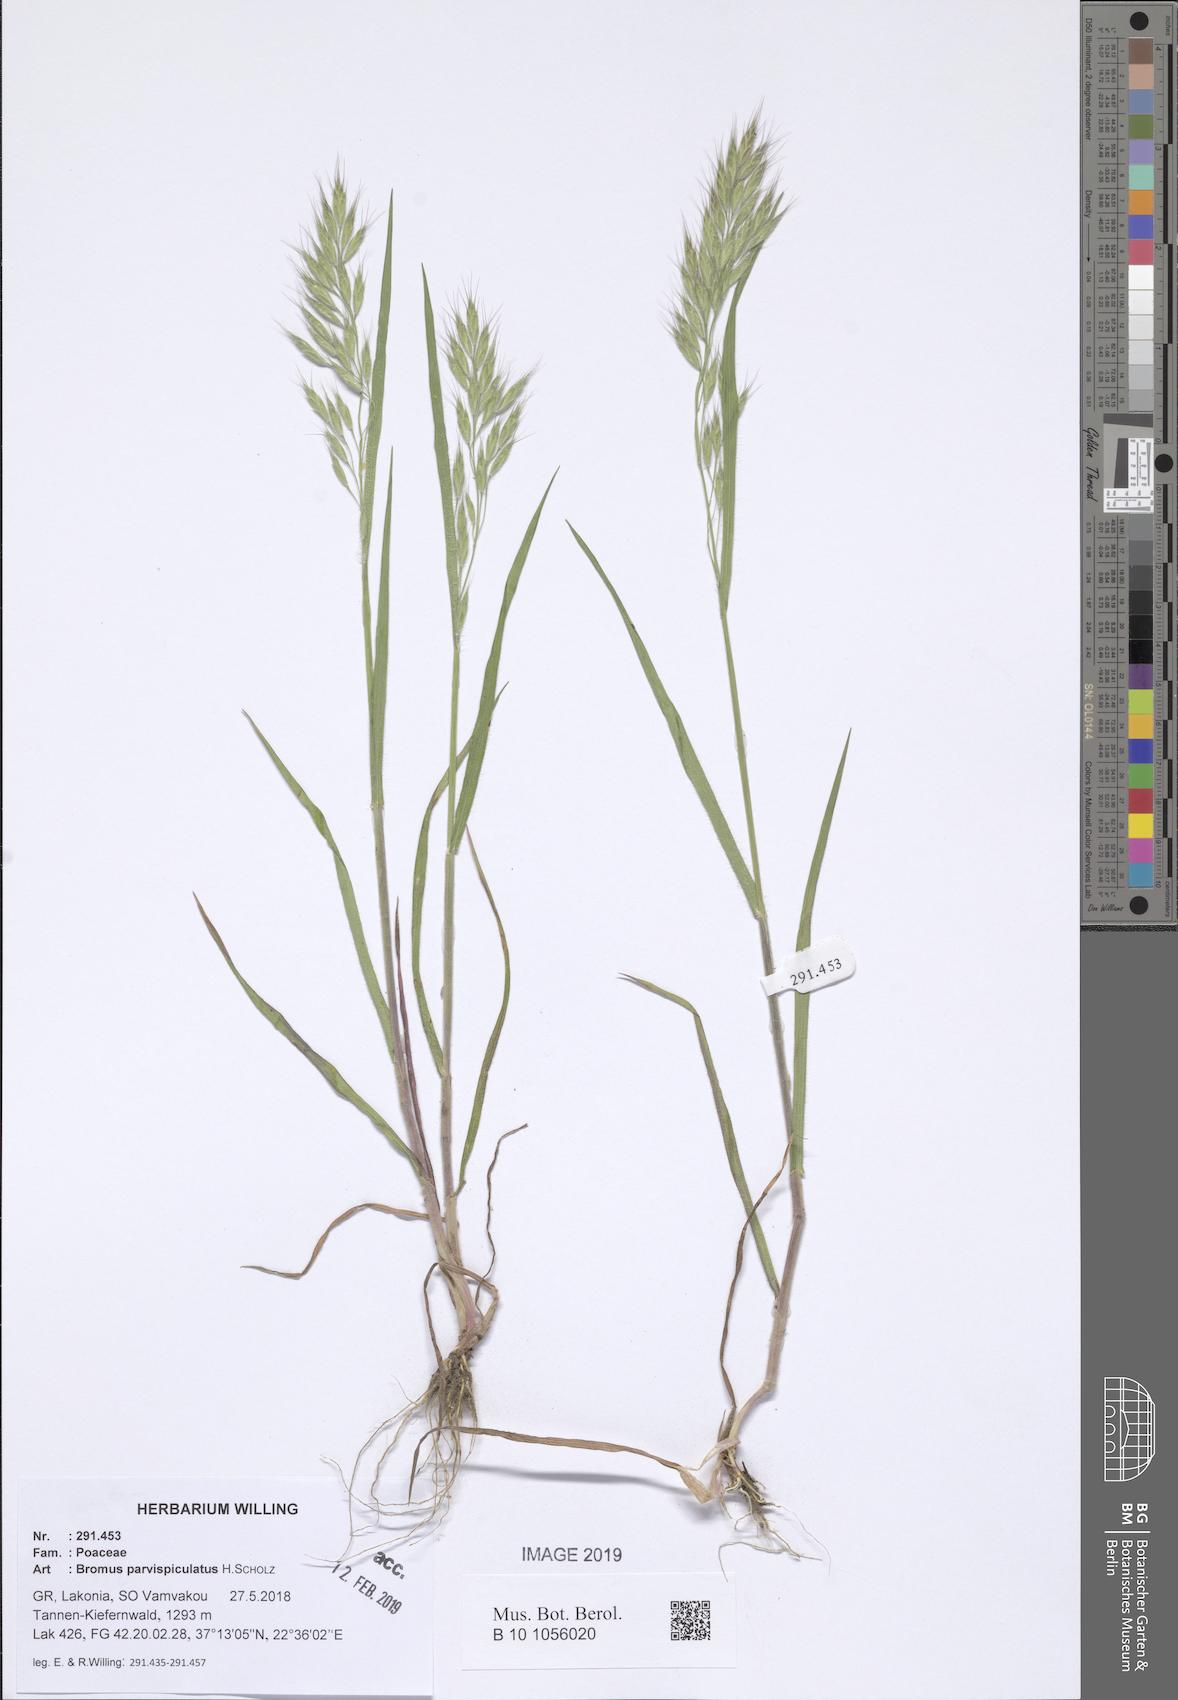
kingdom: Plantae
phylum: Tracheophyta
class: Liliopsida
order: Poales
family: Poaceae
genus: Bromus
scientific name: Bromus hordeaceus
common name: Soft brome
